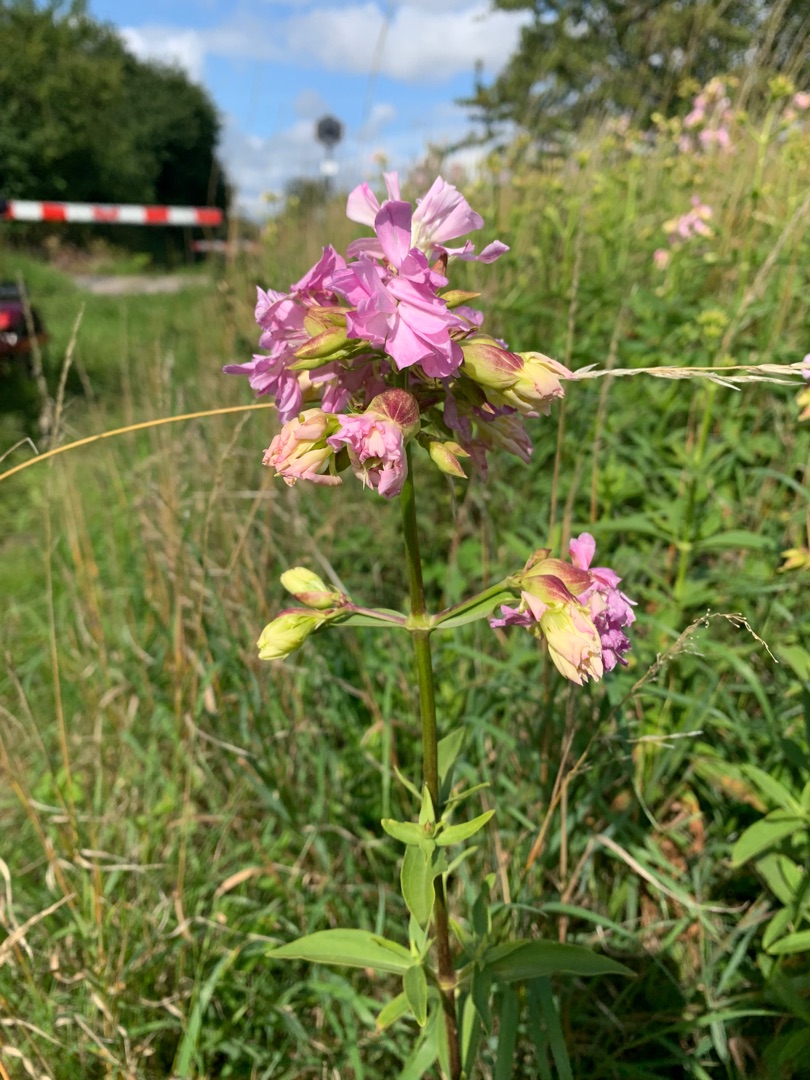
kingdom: Plantae
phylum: Tracheophyta
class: Magnoliopsida
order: Caryophyllales
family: Caryophyllaceae
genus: Saponaria
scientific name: Saponaria officinalis
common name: Sæbeurt
